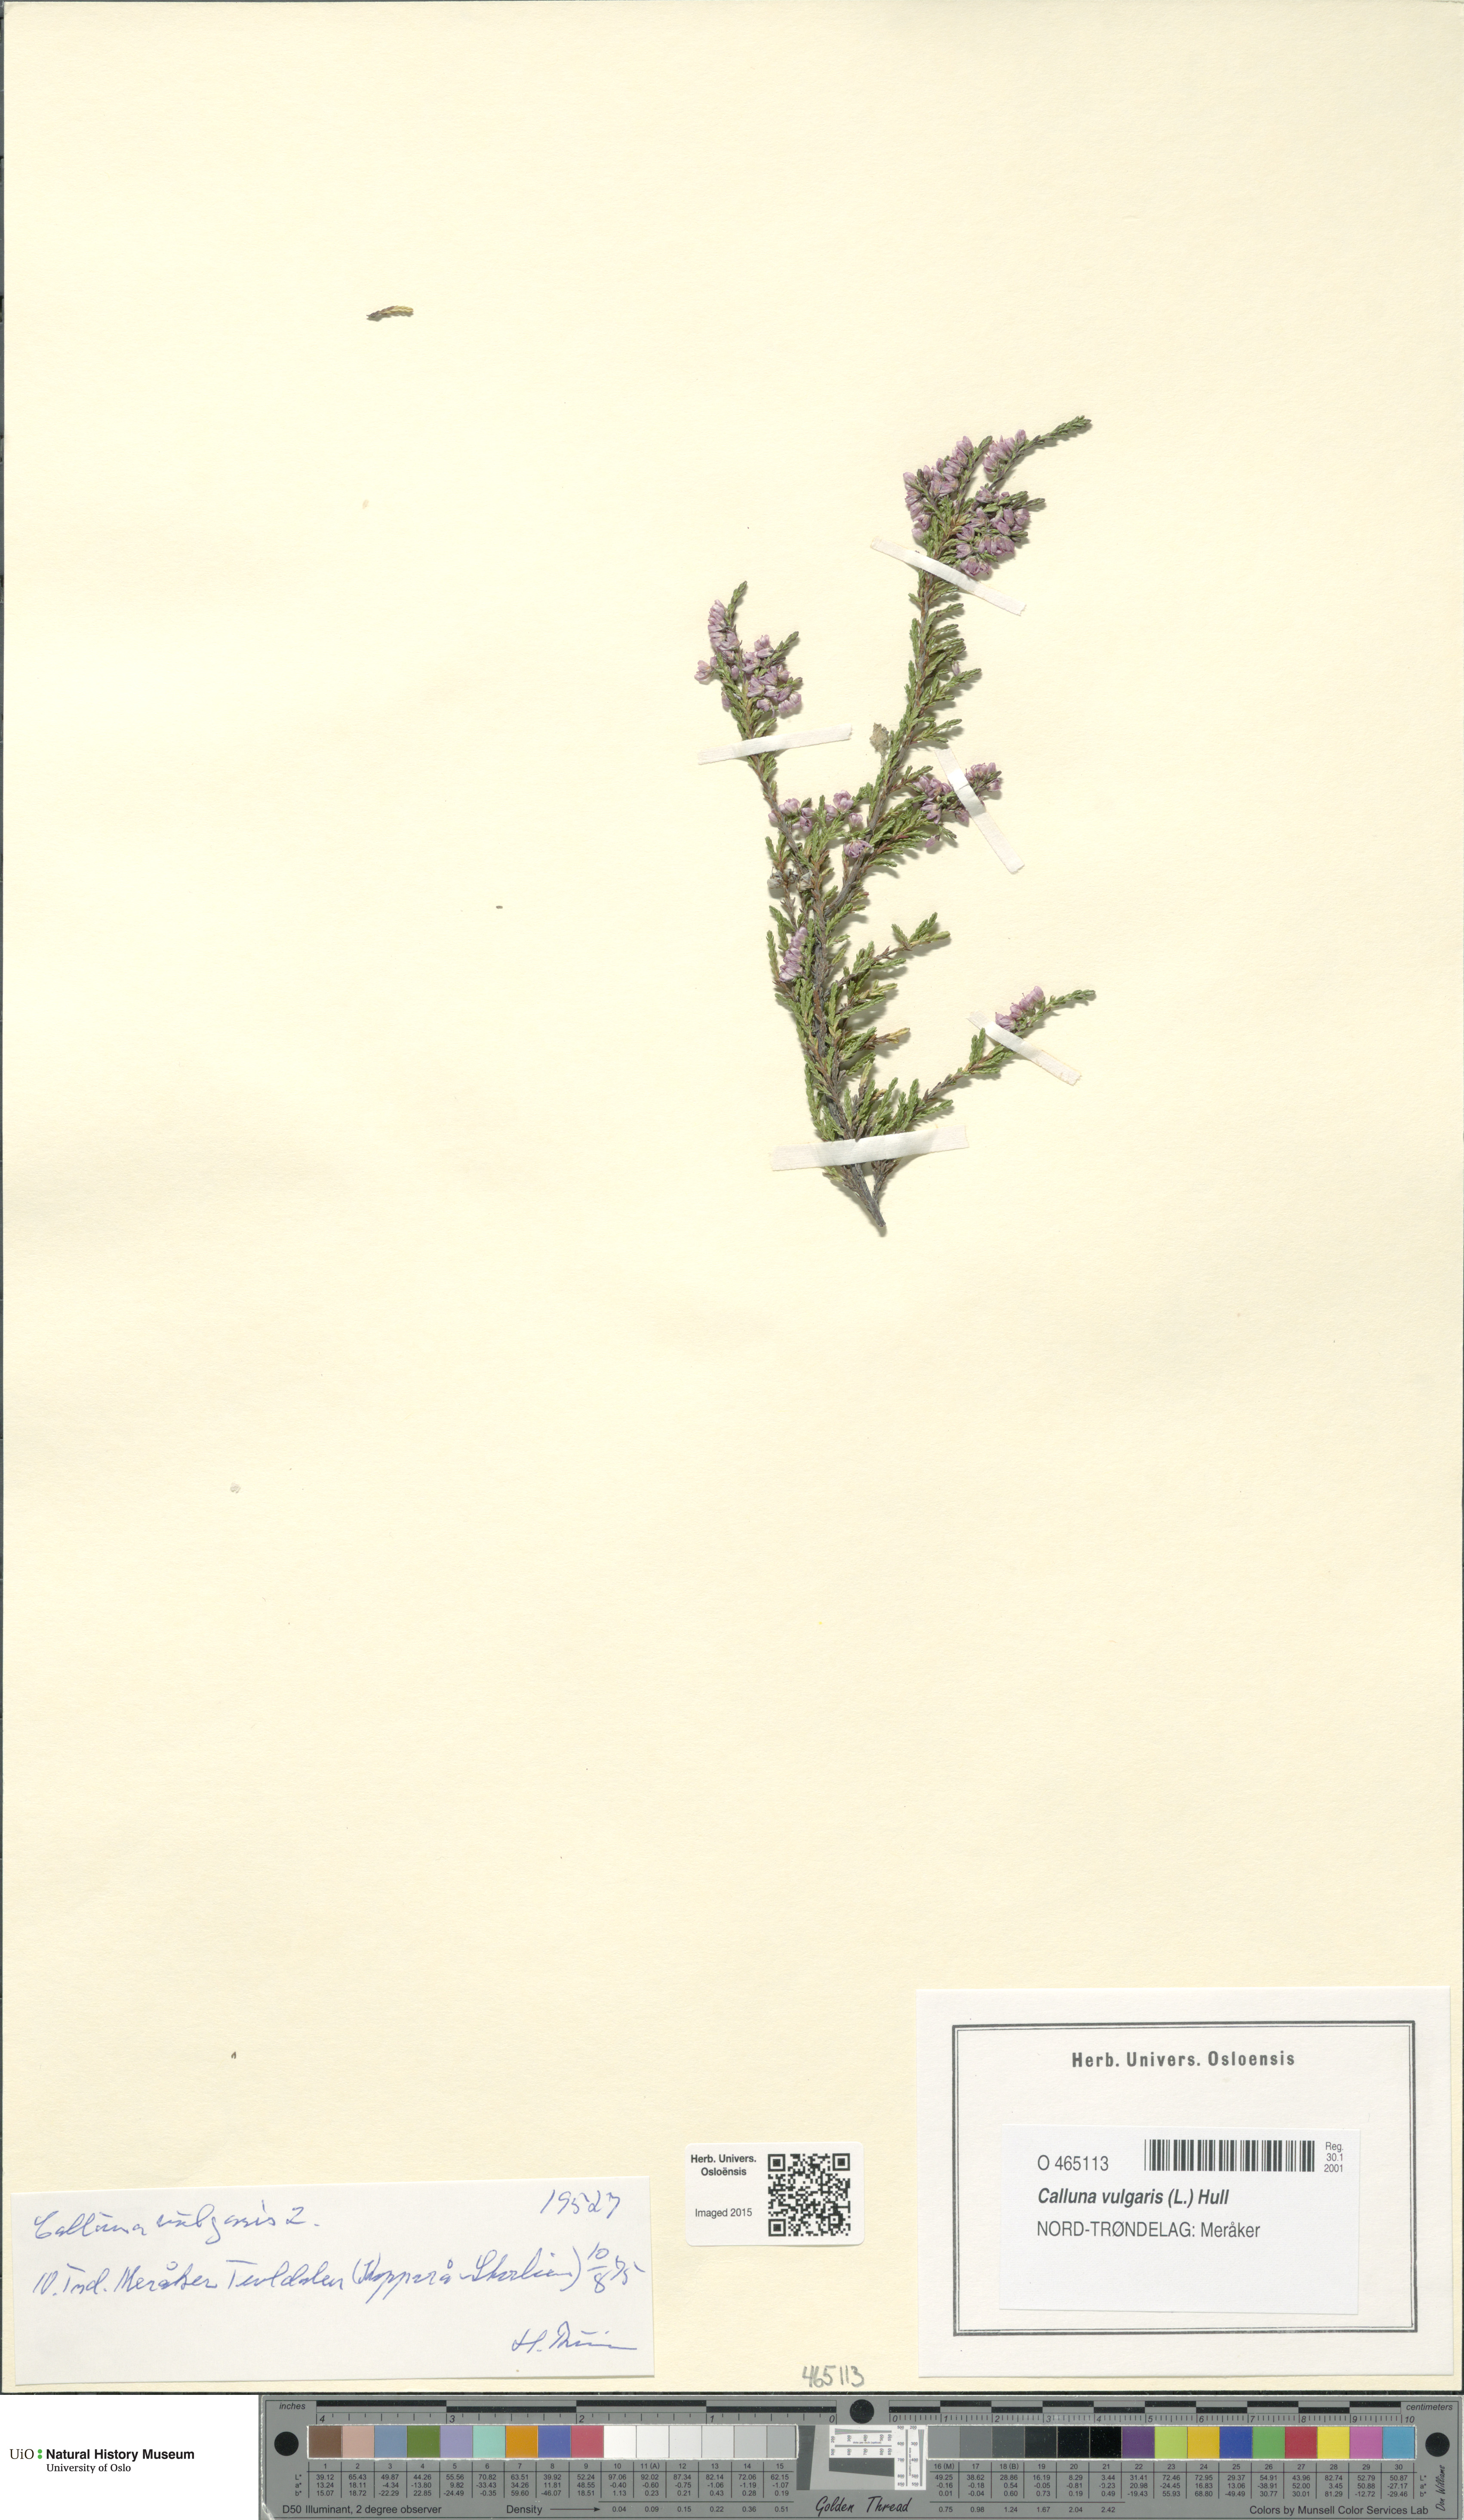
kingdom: Plantae
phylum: Tracheophyta
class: Magnoliopsida
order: Ericales
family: Ericaceae
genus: Calluna
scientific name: Calluna vulgaris
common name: Heather
